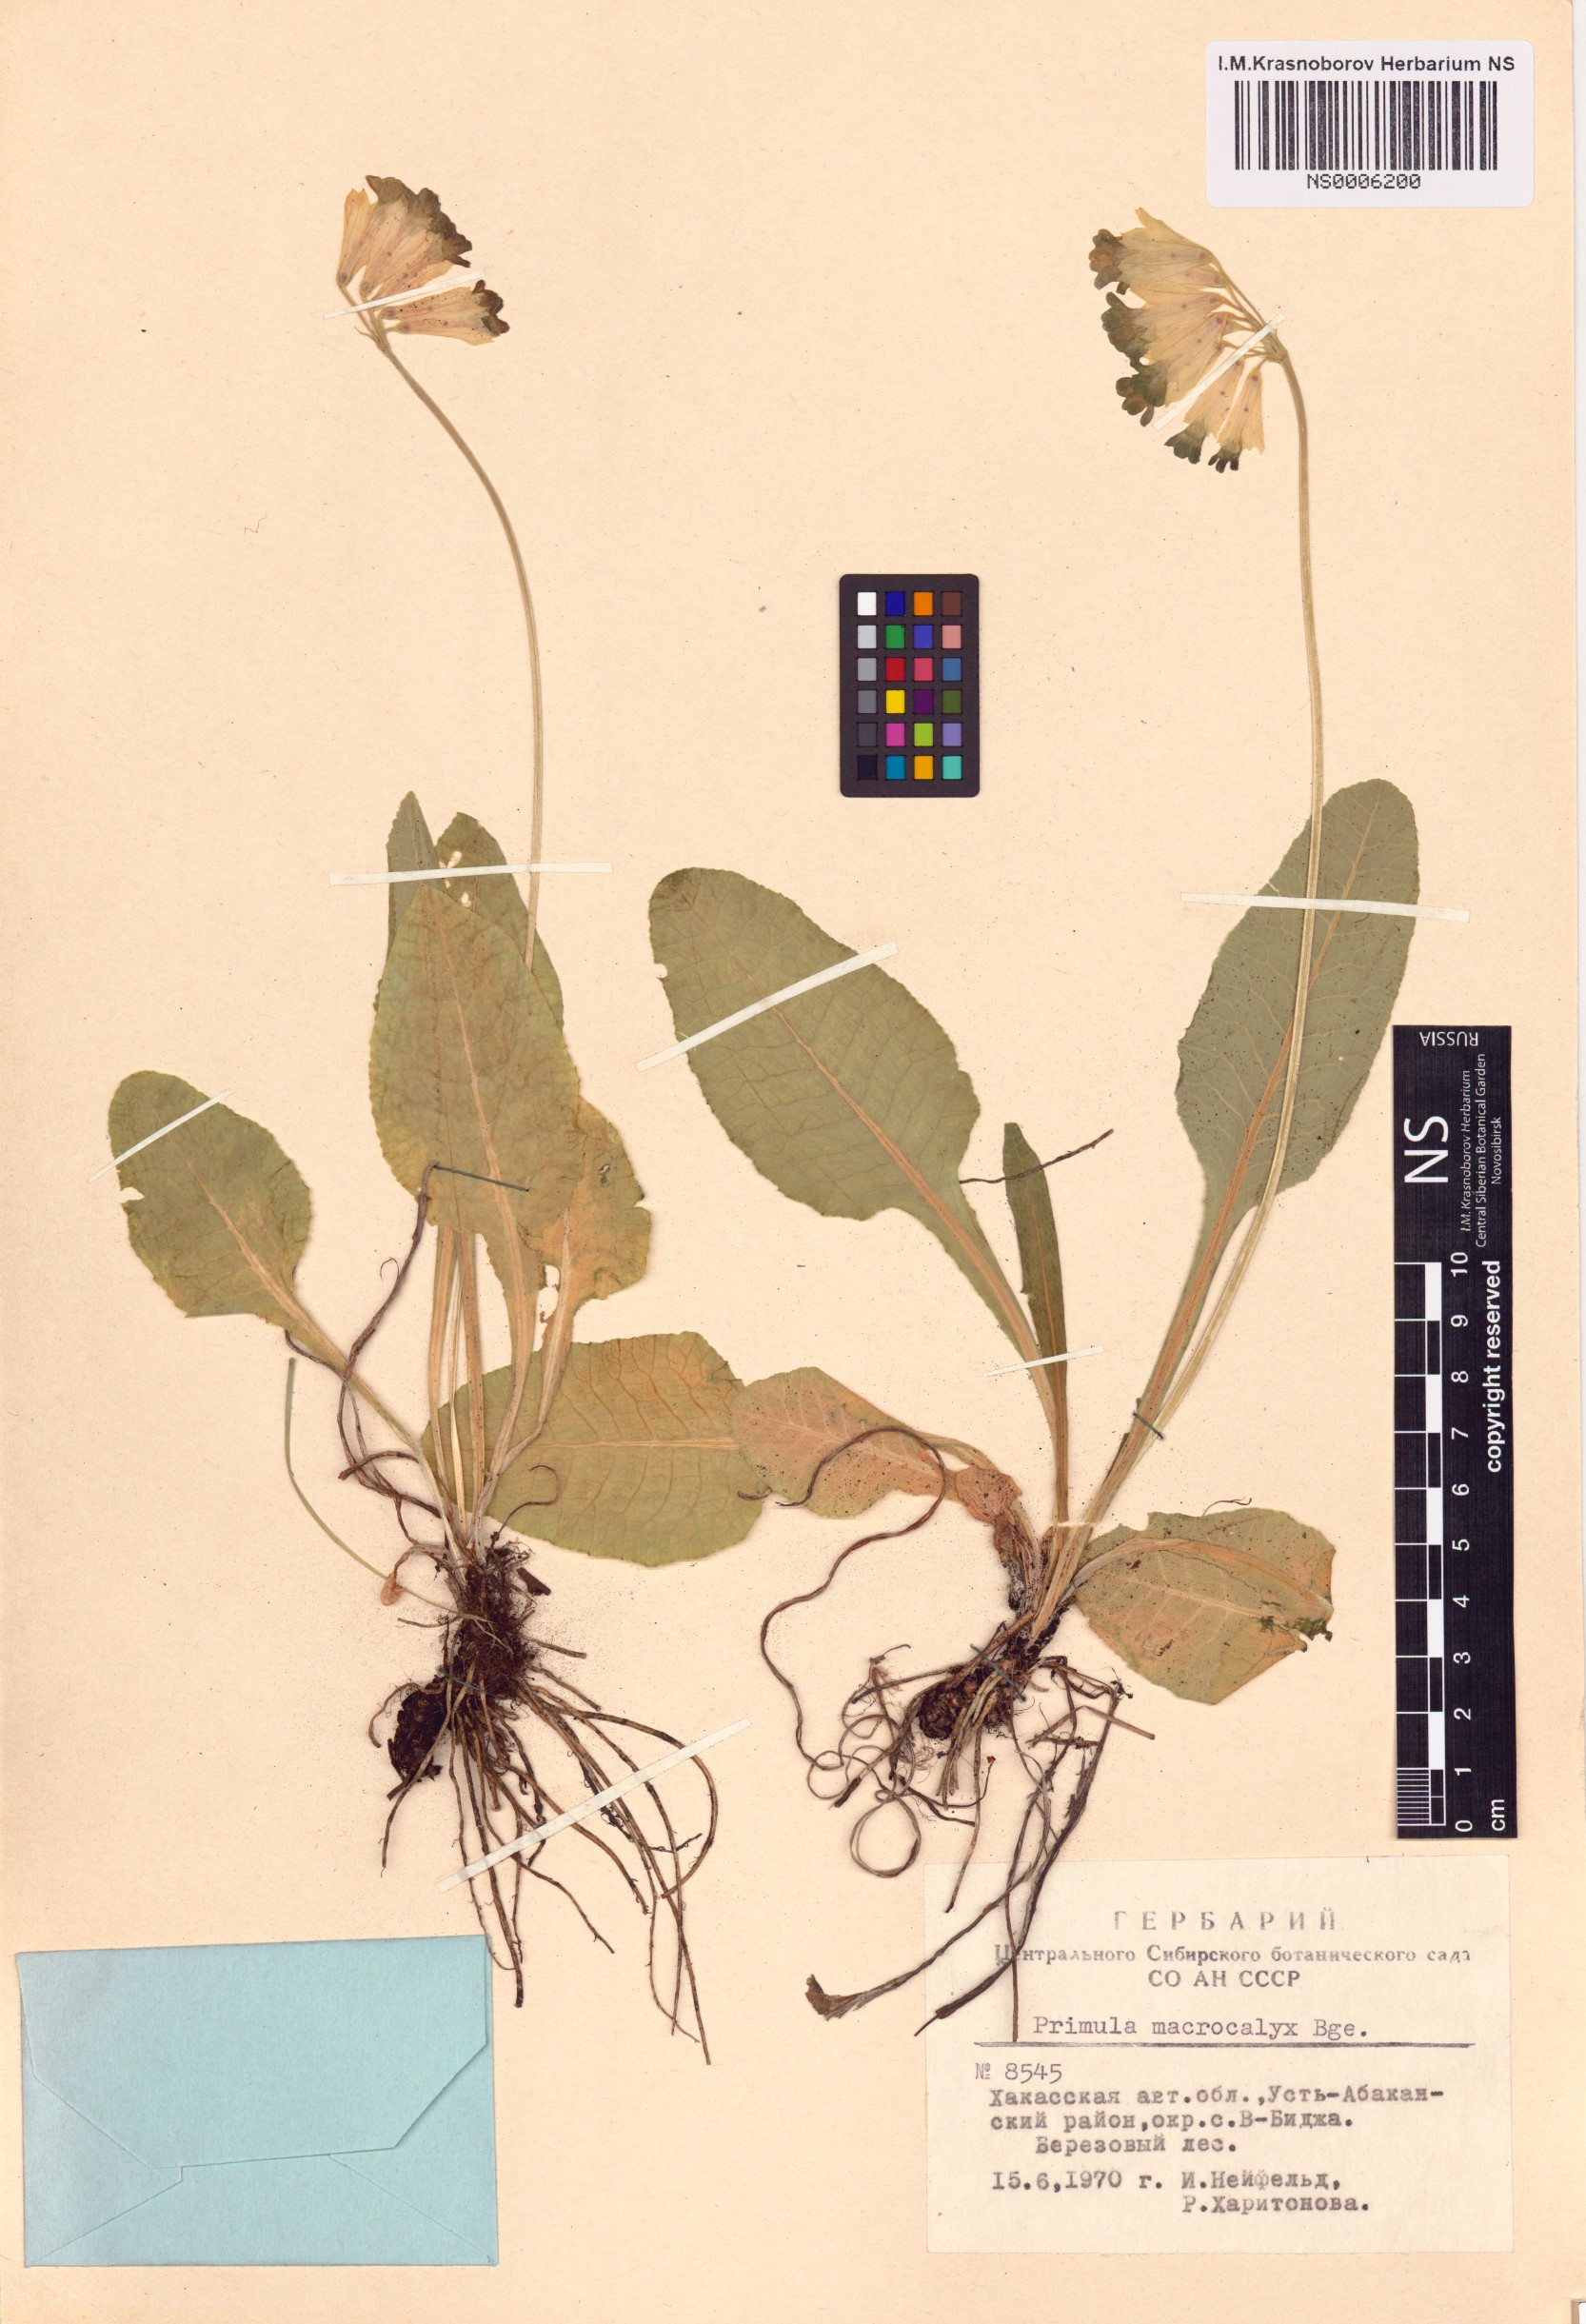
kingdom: Plantae
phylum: Tracheophyta
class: Magnoliopsida
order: Ericales
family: Primulaceae
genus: Primula
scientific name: Primula veris
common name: Cowslip
